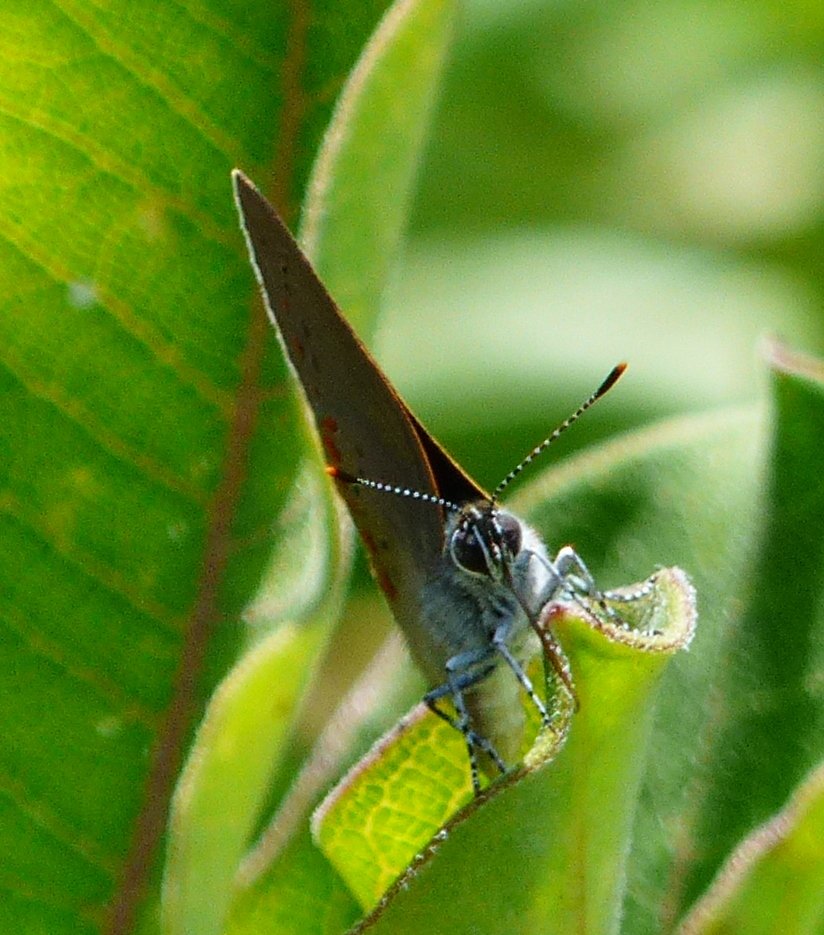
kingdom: Animalia
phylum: Arthropoda
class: Insecta
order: Lepidoptera
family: Lycaenidae
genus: Harkenclenus
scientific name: Harkenclenus titus
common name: Coral Hairstreak
